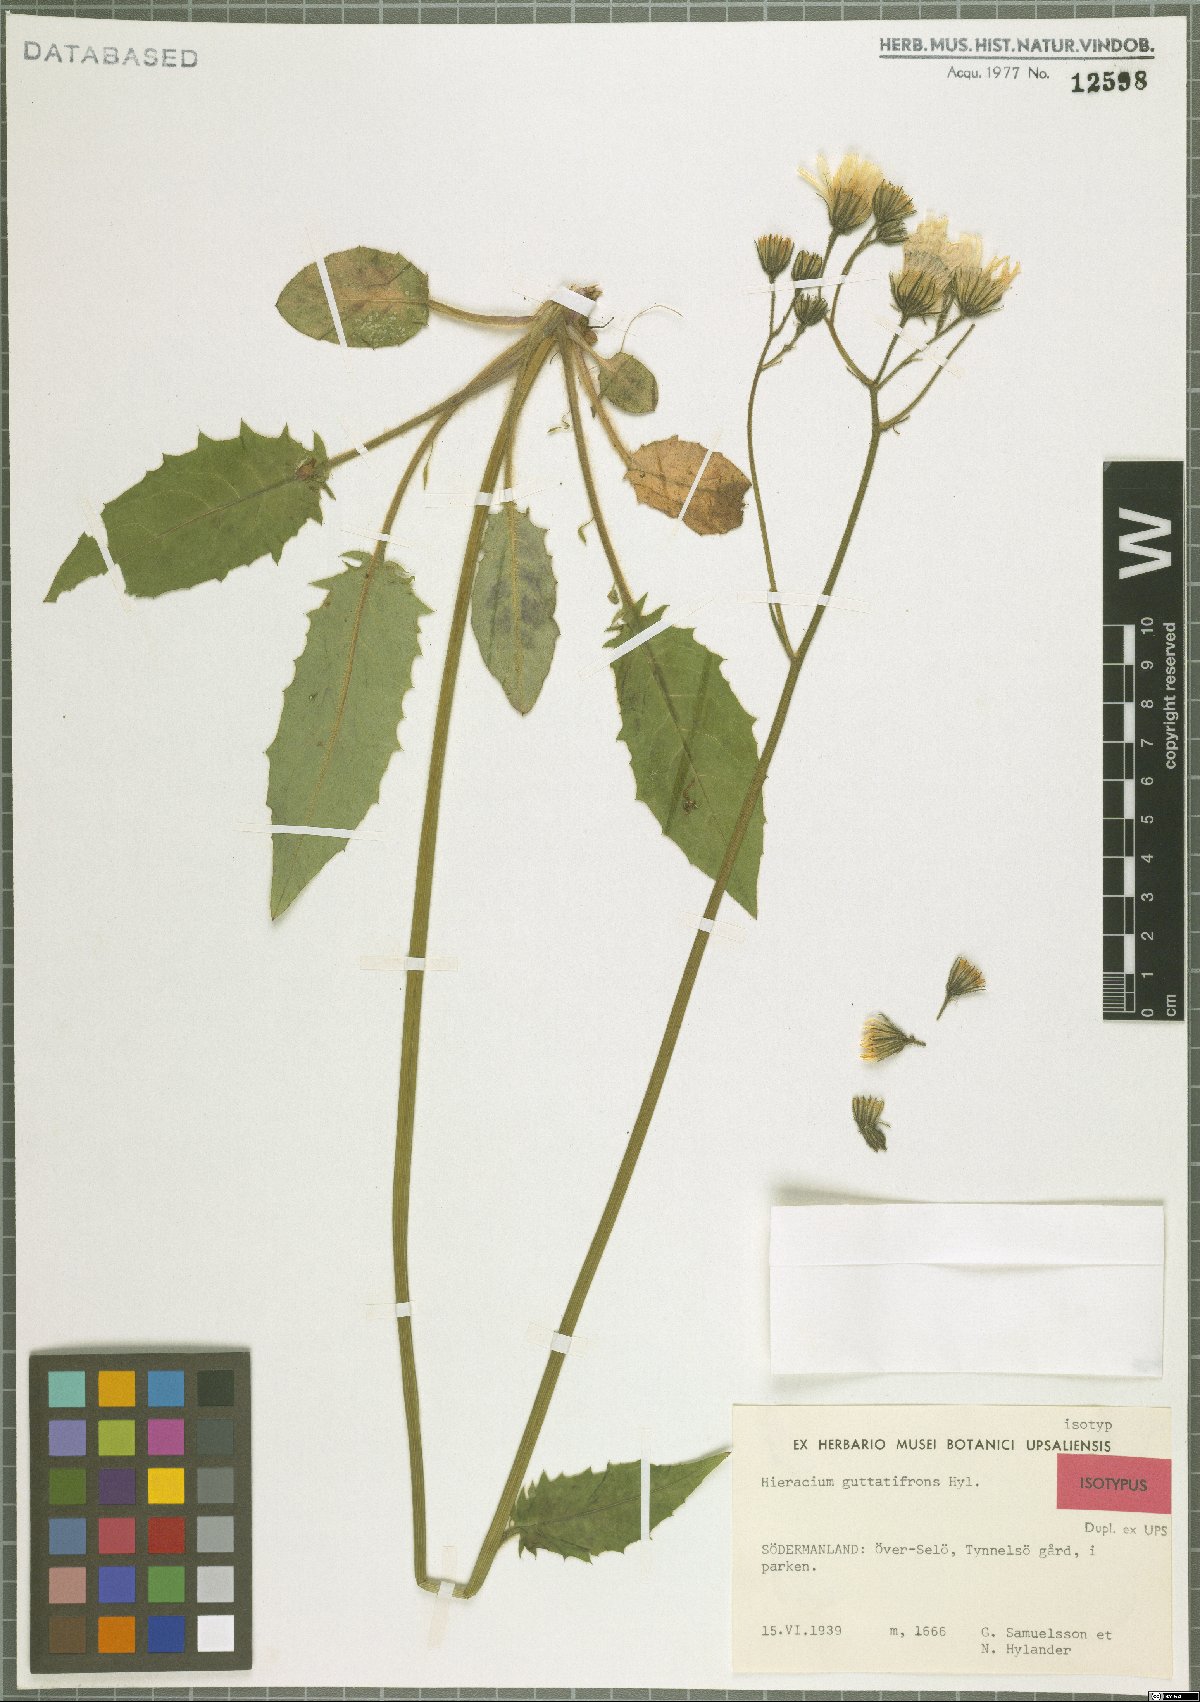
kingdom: Plantae
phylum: Tracheophyta
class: Magnoliopsida
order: Asterales
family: Asteraceae
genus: Hieracium
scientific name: Hieracium guttatifrons
